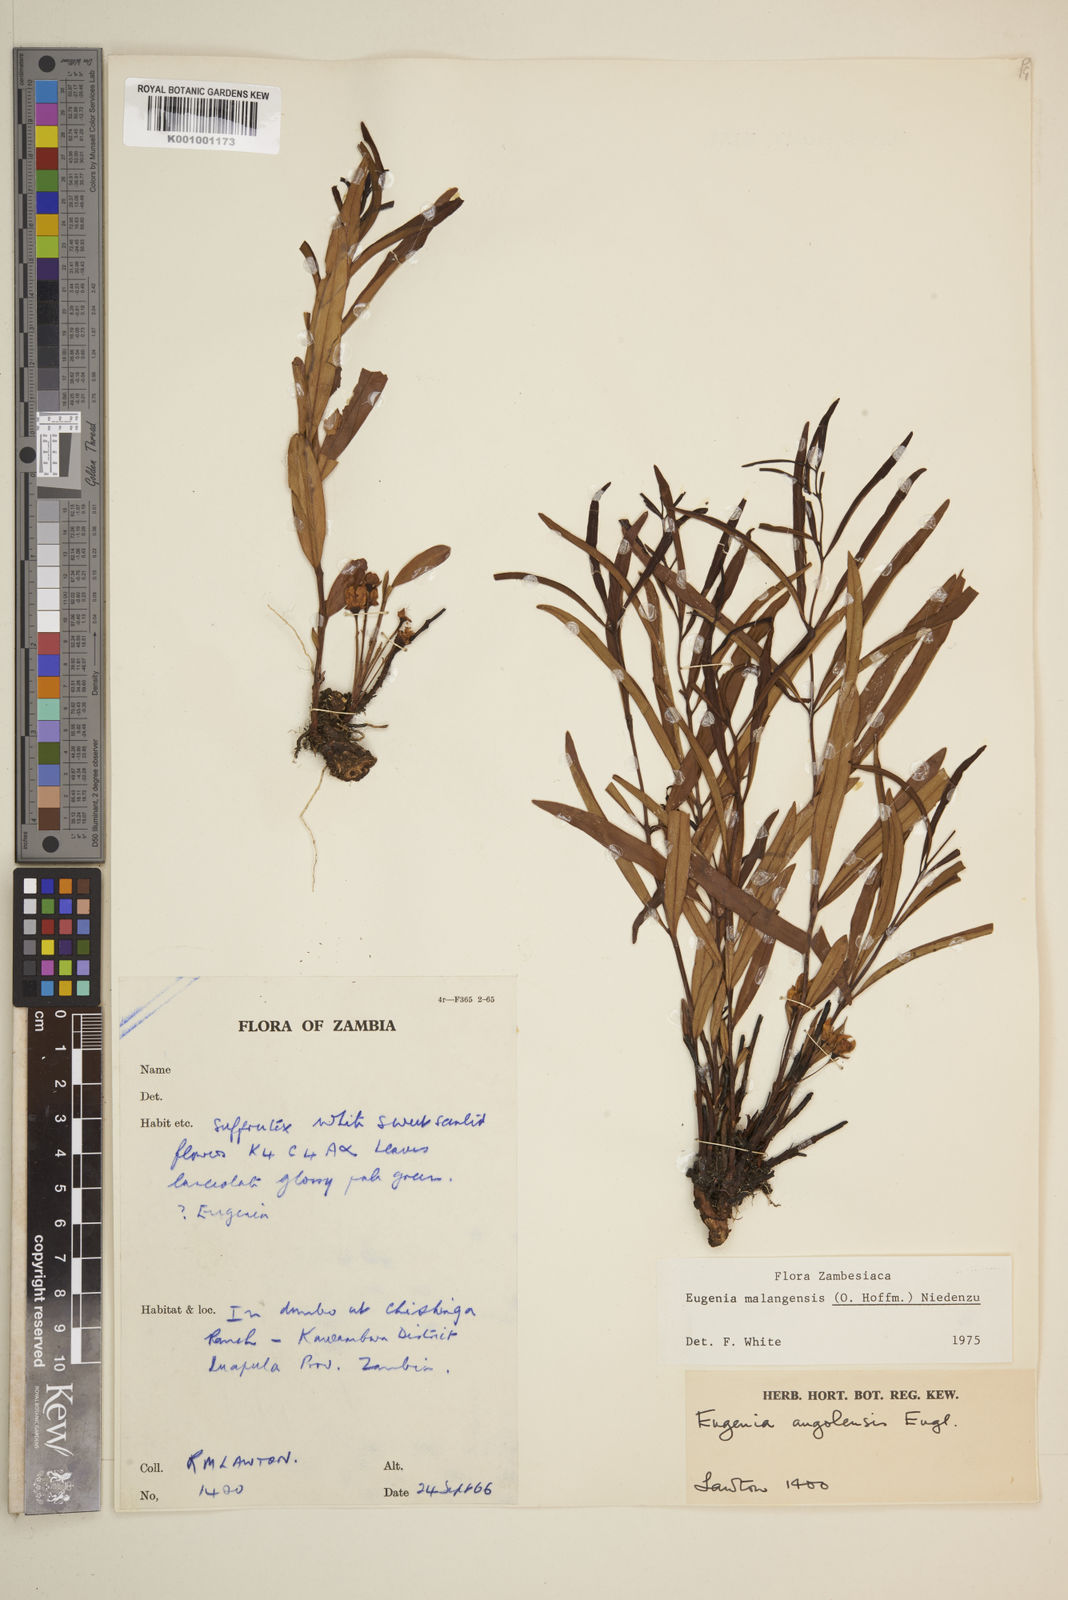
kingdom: Plantae
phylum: Tracheophyta
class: Magnoliopsida
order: Myrtales
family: Myrtaceae
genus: Eugenia
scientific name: Eugenia malangensis
